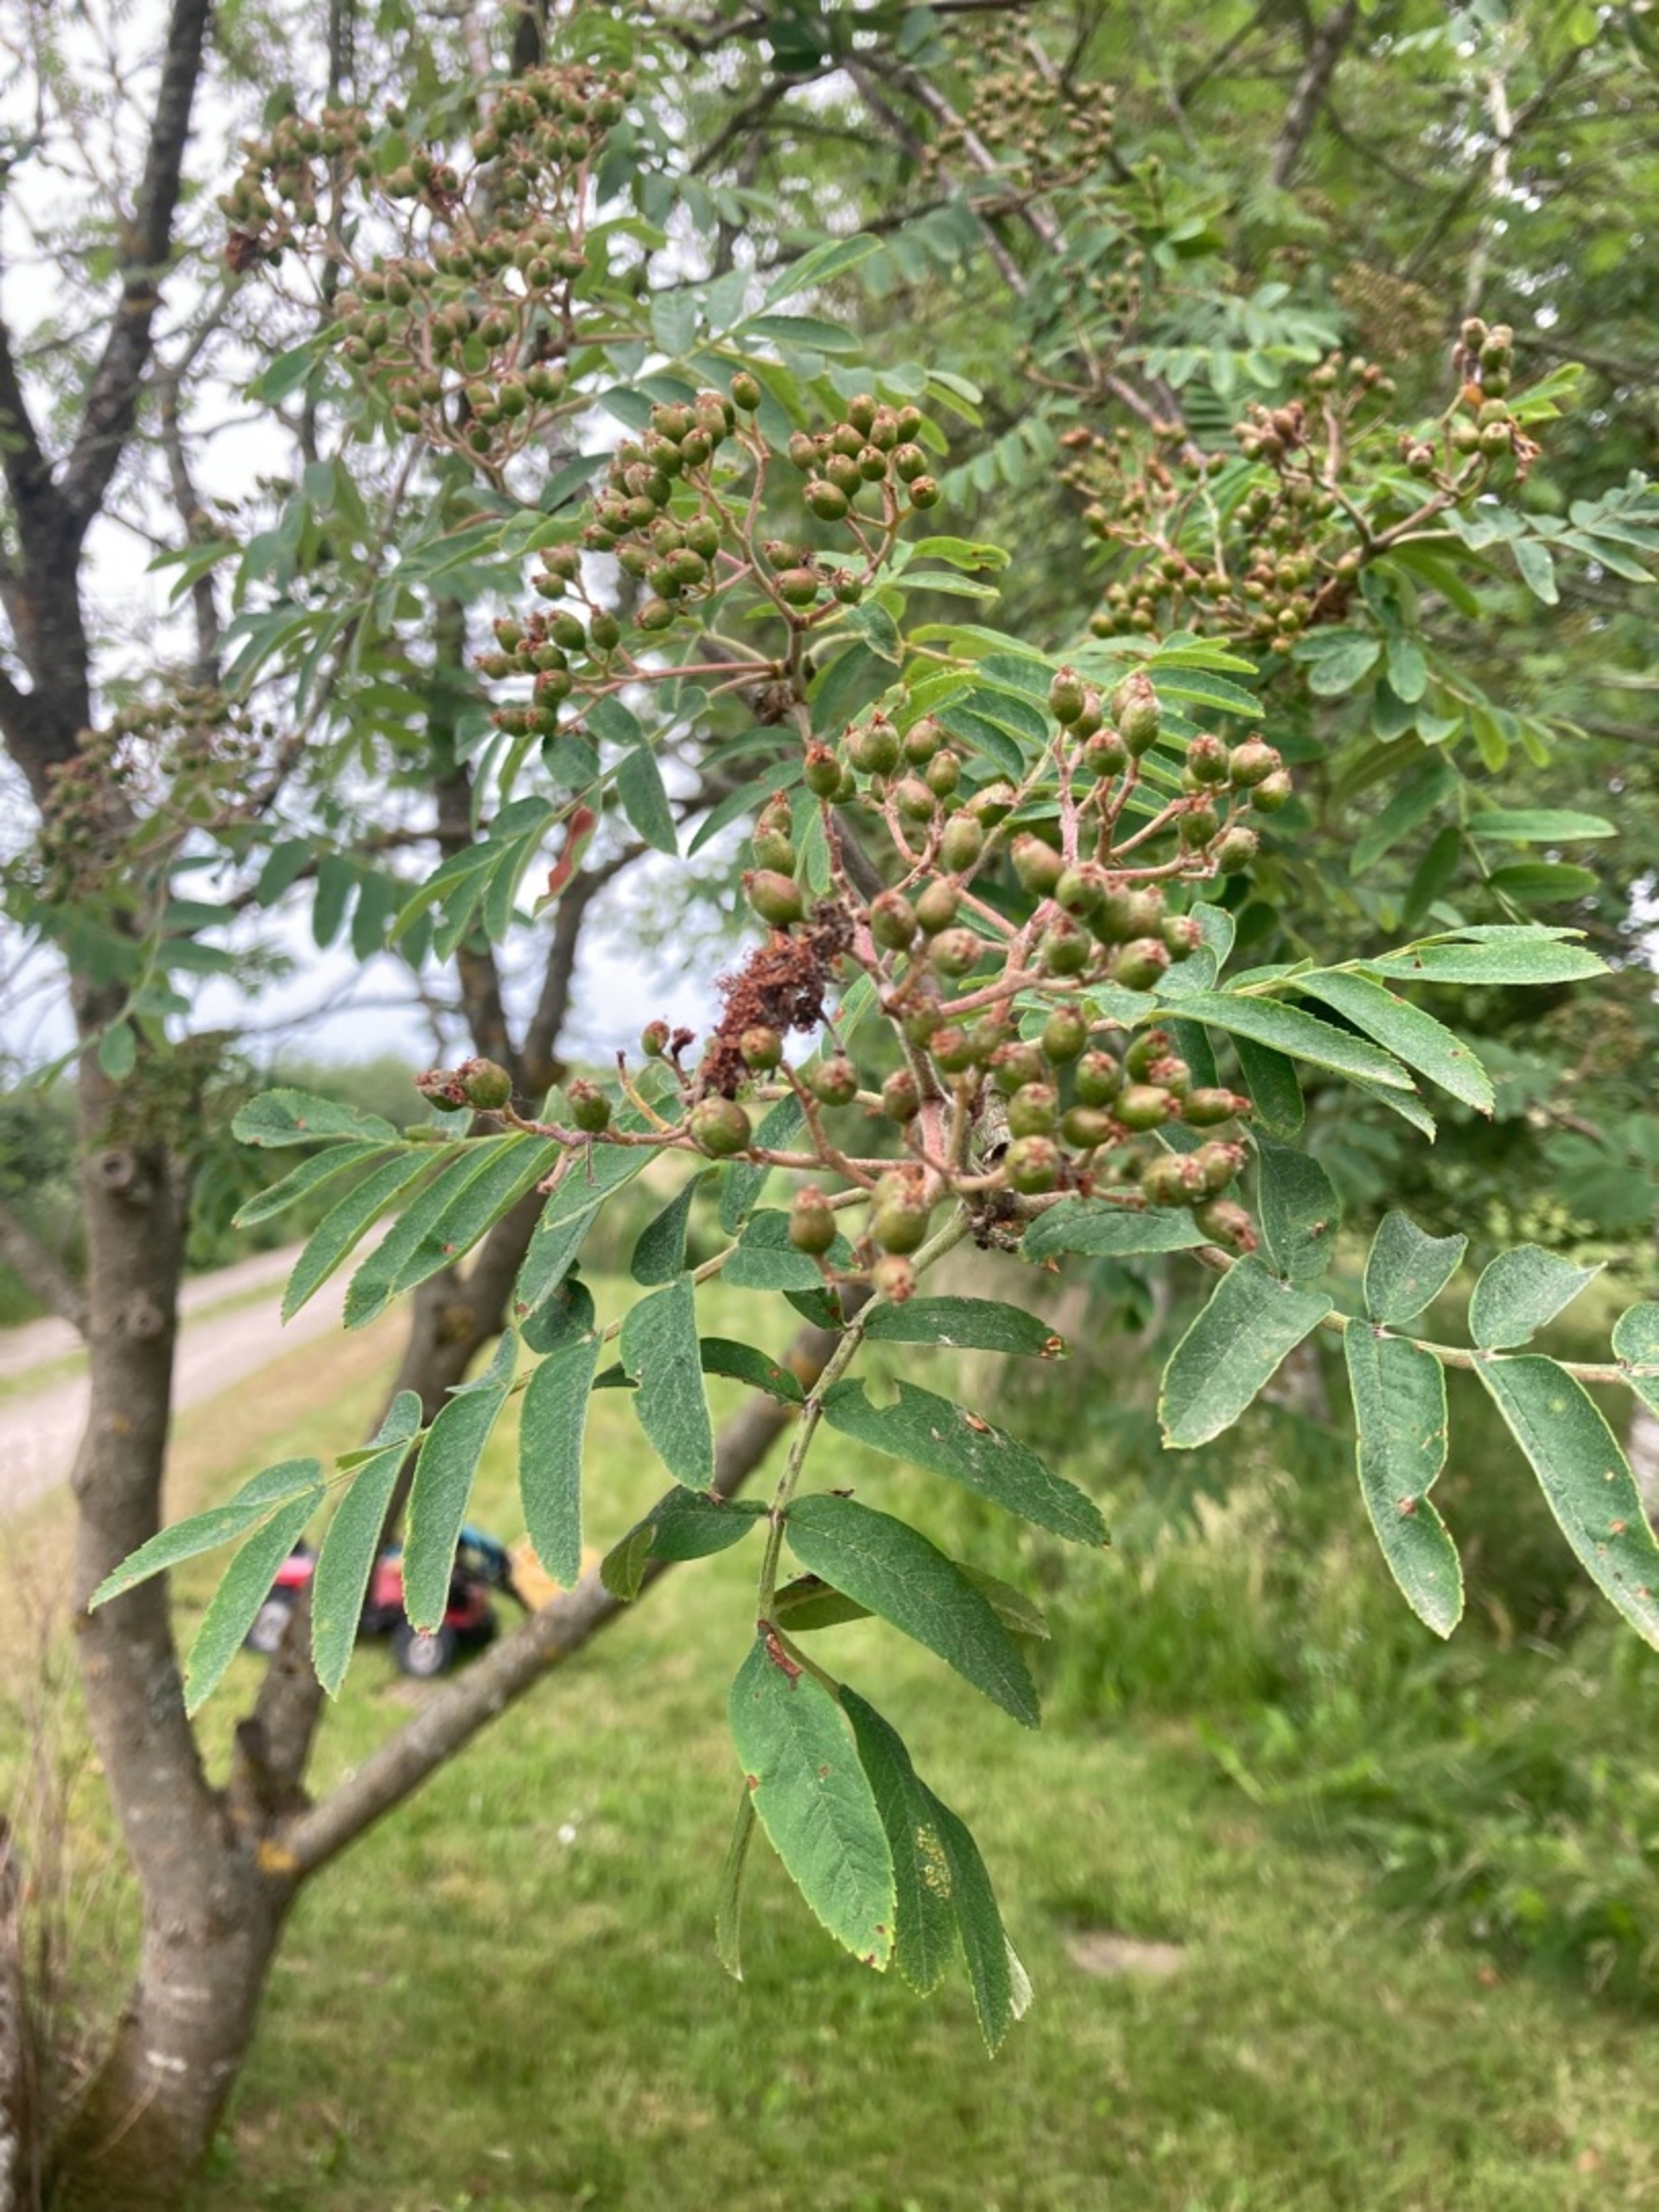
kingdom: Plantae
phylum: Tracheophyta
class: Magnoliopsida
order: Rosales
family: Rosaceae
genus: Sorbus
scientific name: Sorbus aucuparia
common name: Almindelig røn
